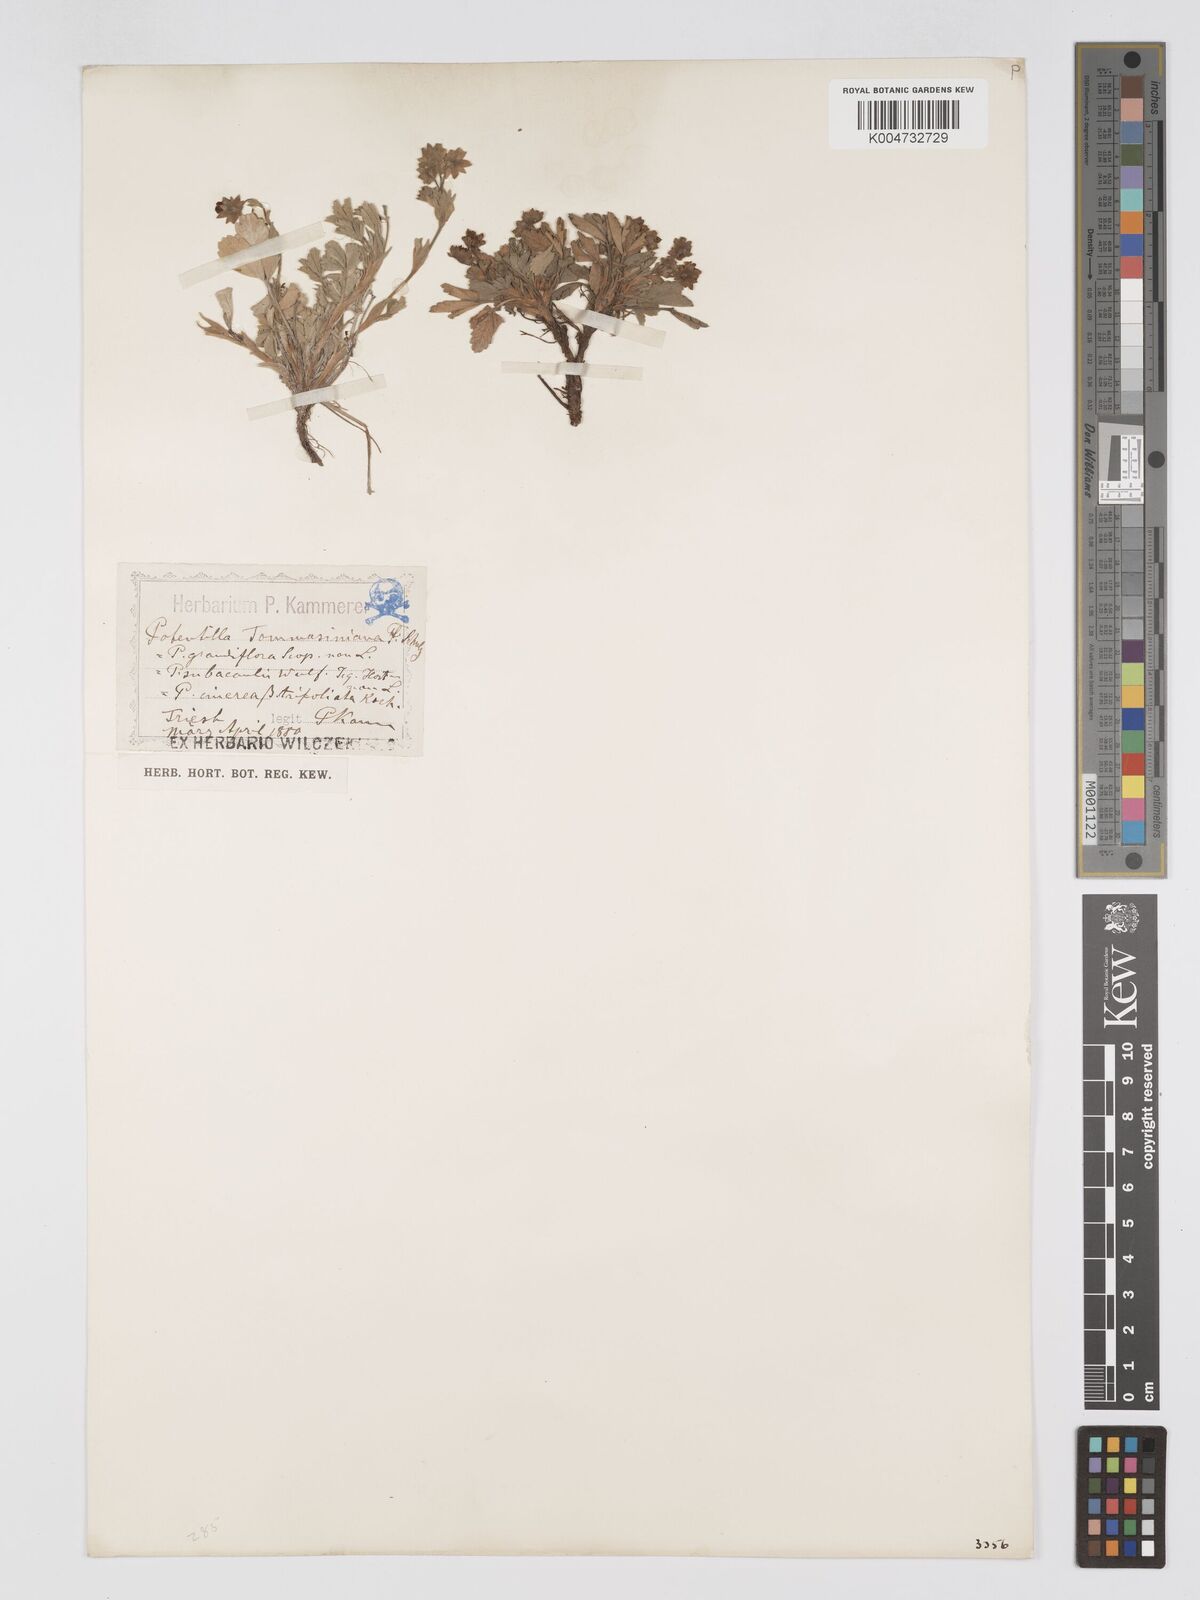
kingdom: Plantae
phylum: Tracheophyta
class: Magnoliopsida
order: Rosales
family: Rosaceae
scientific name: Rosaceae
